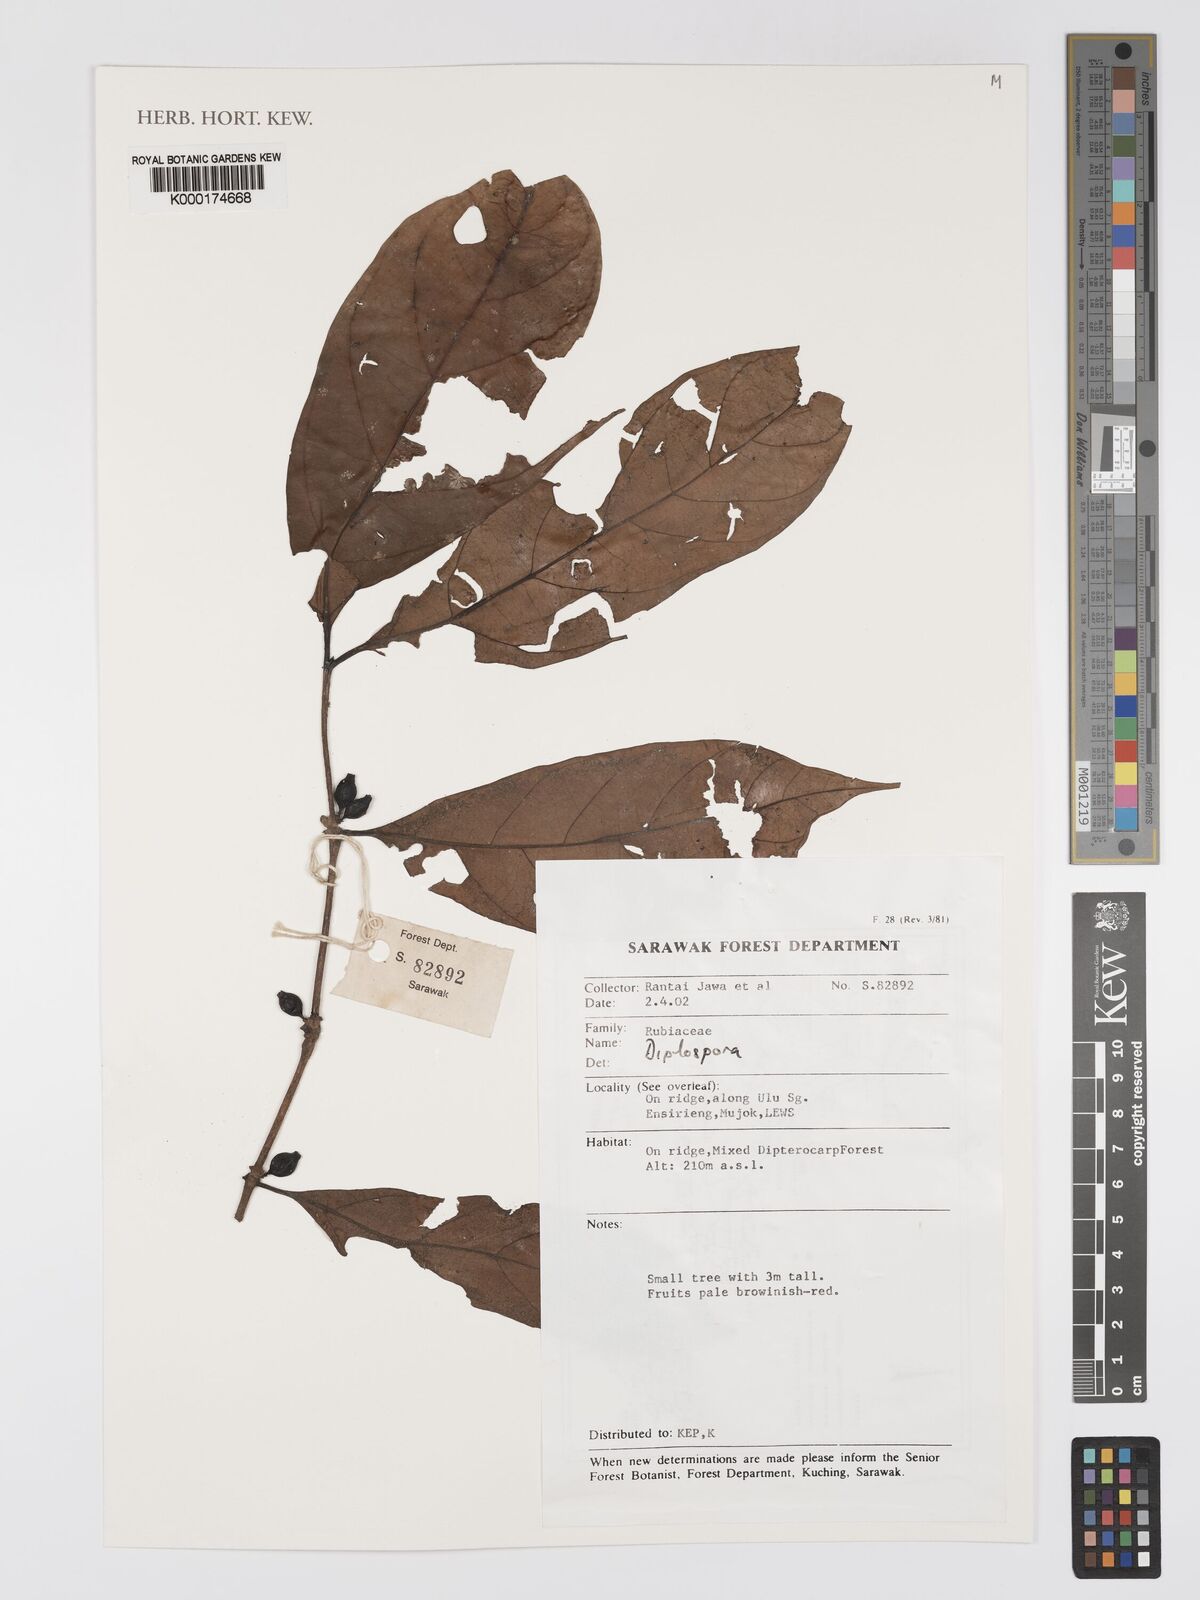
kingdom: Plantae
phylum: Tracheophyta
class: Magnoliopsida
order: Gentianales
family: Rubiaceae
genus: Diplospora
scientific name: Diplospora
